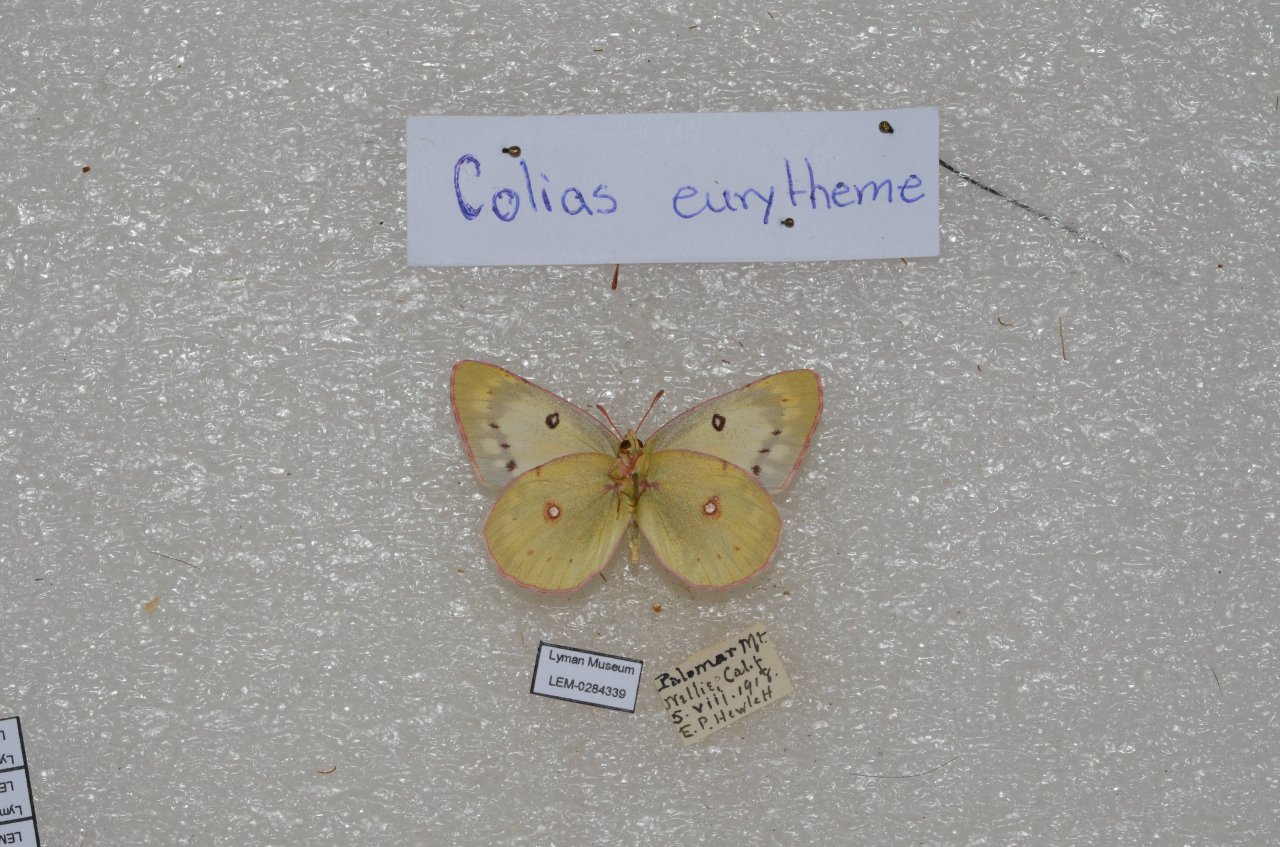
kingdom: Animalia
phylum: Arthropoda
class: Insecta
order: Lepidoptera
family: Pieridae
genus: Colias
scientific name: Colias eurytheme
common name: Orange Sulphur
